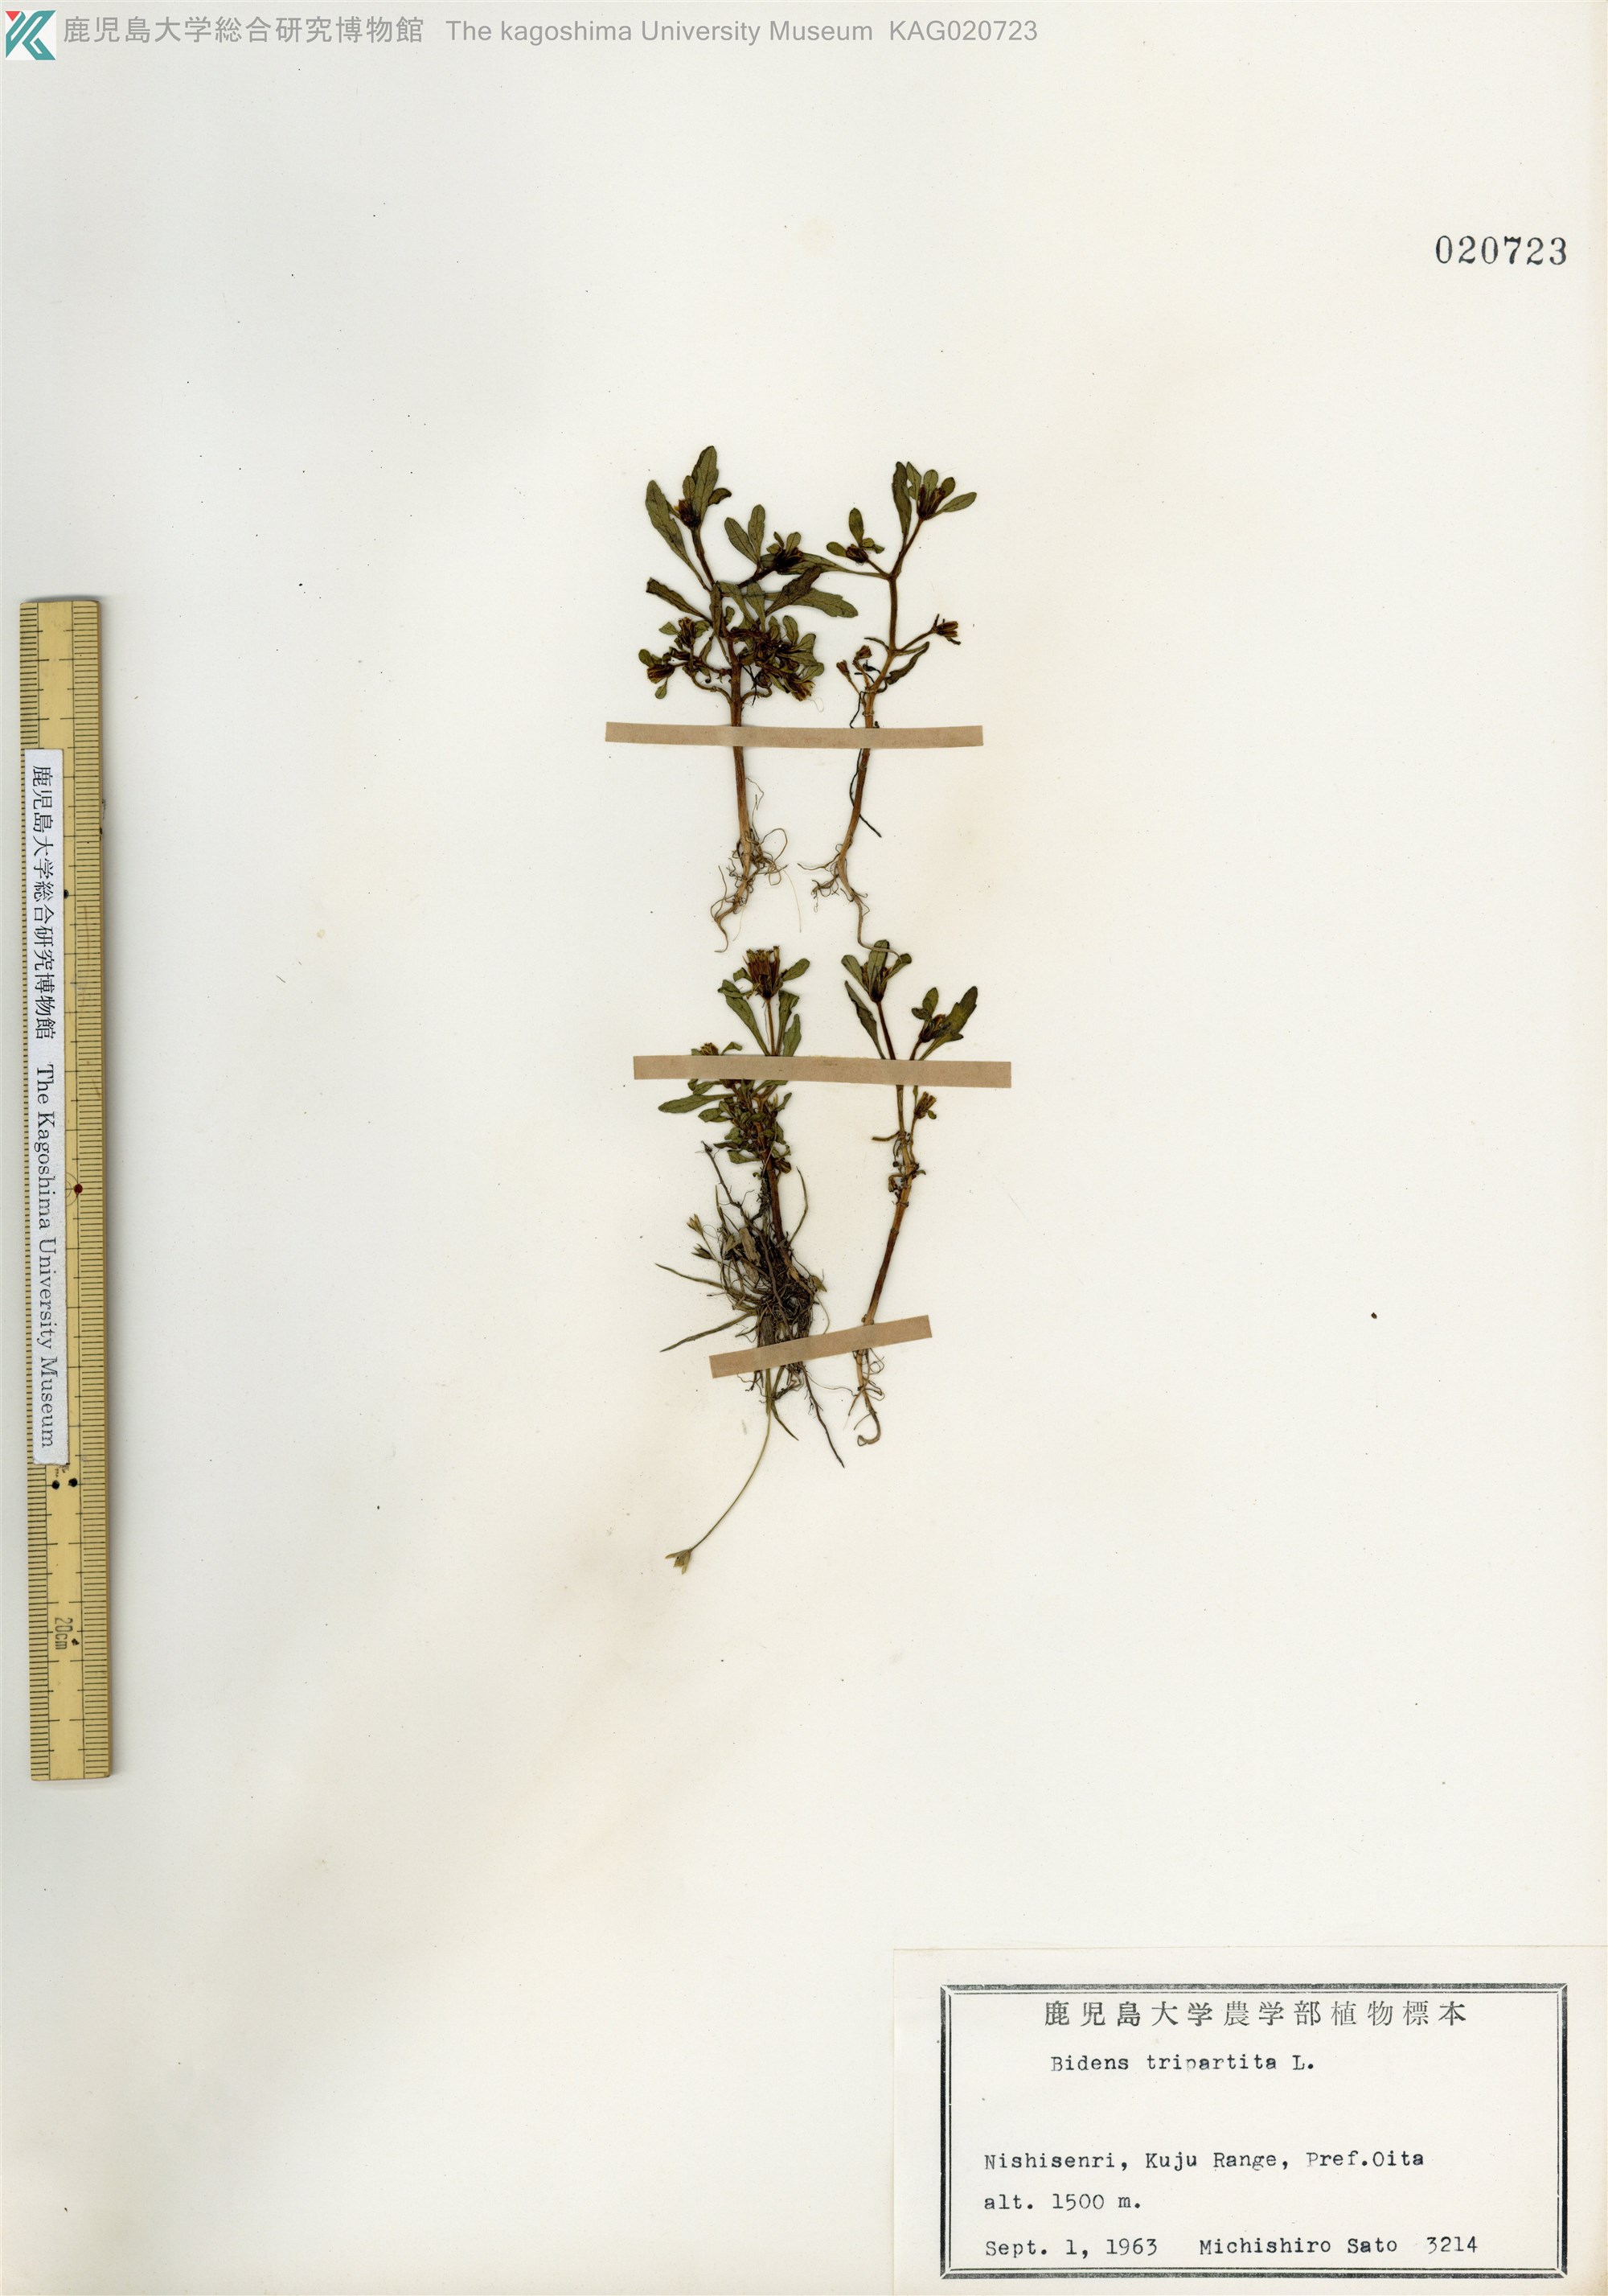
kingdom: Plantae
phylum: Tracheophyta
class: Magnoliopsida
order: Asterales
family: Asteraceae
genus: Bidens
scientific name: Bidens tripartita
